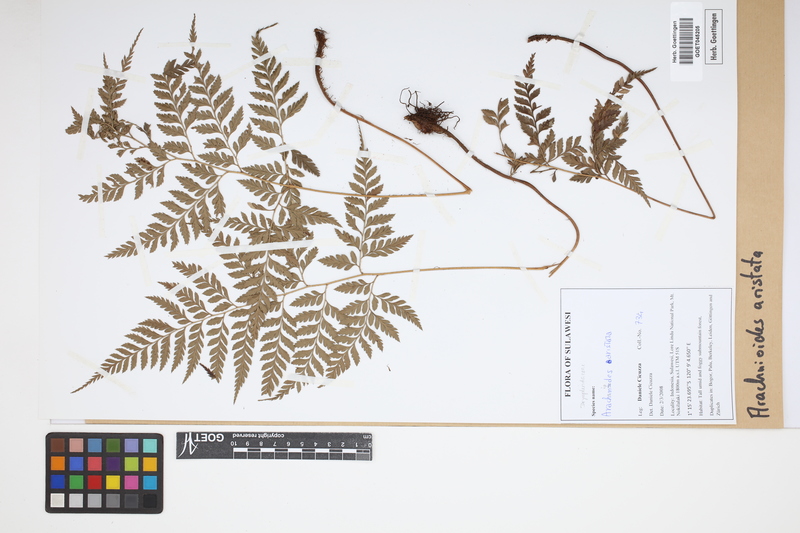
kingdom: Plantae
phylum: Tracheophyta
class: Polypodiopsida
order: Polypodiales
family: Dryopteridaceae
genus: Arachniodes
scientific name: Arachniodes aristata
